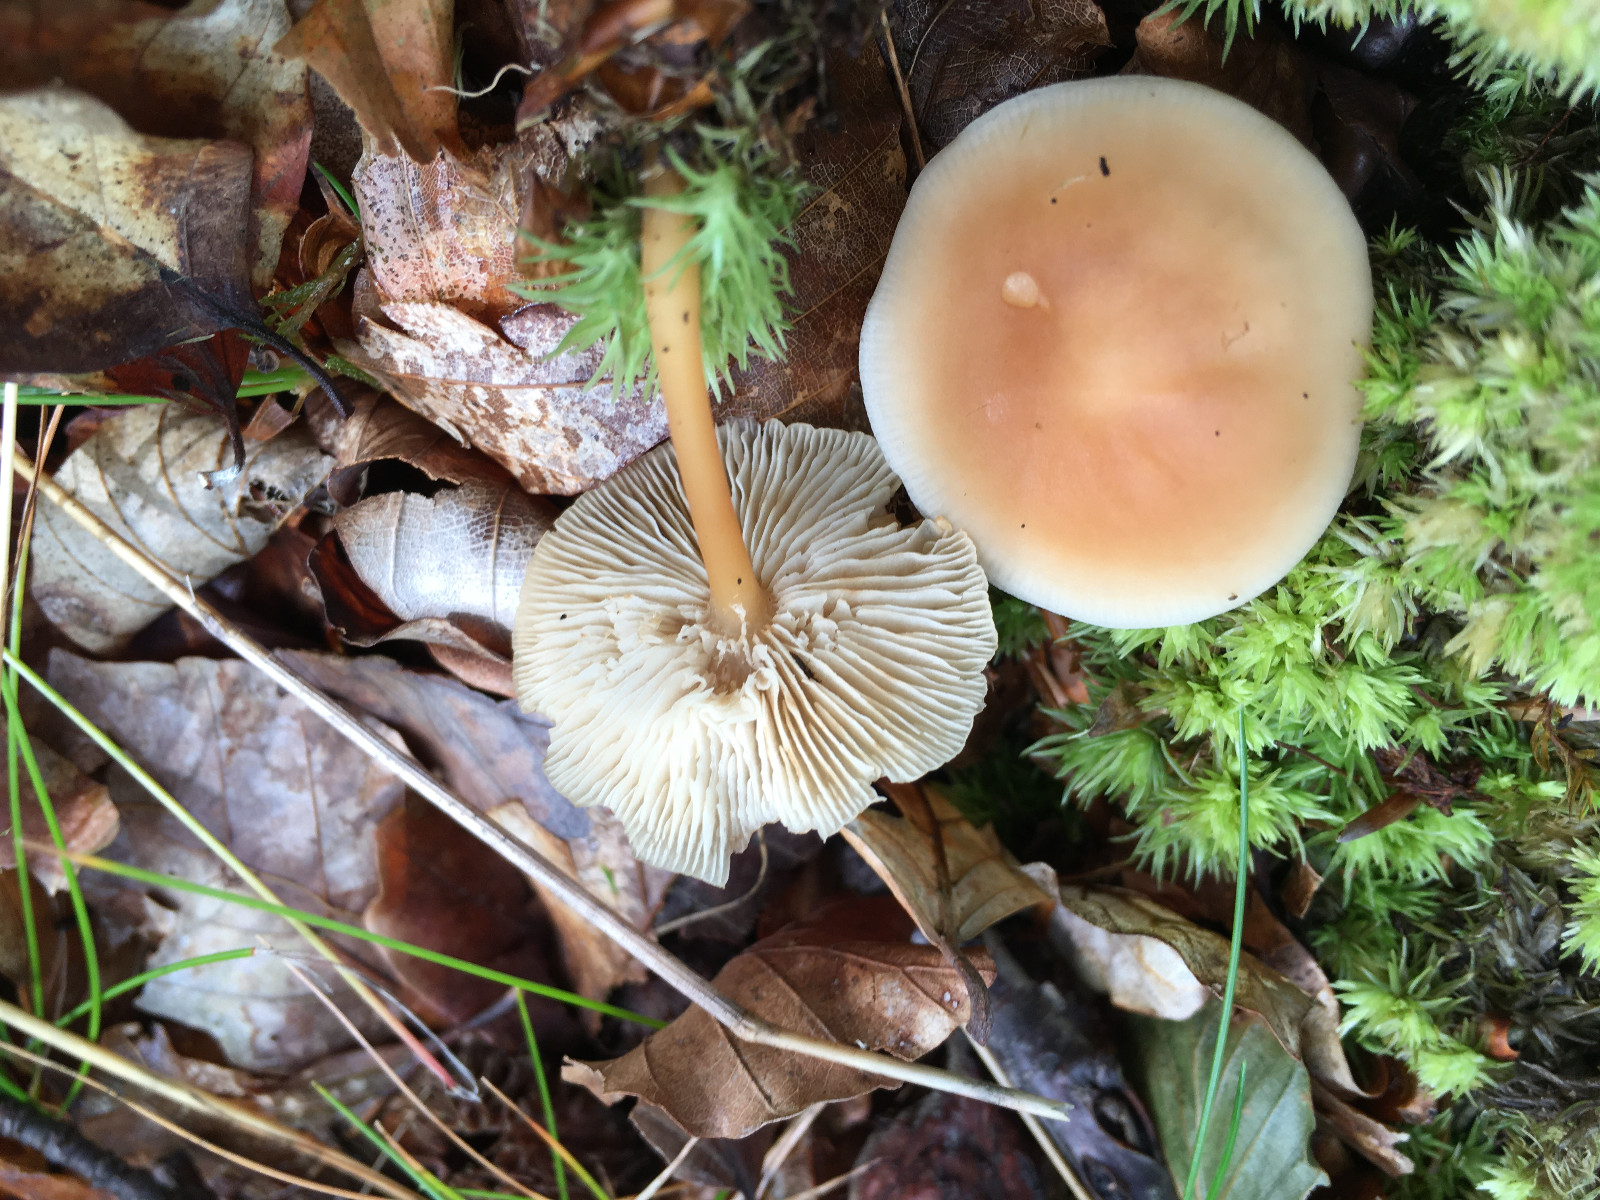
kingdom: Fungi
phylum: Basidiomycota
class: Agaricomycetes
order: Agaricales
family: Omphalotaceae
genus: Gymnopus
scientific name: Gymnopus dryophilus
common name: løv-fladhat
